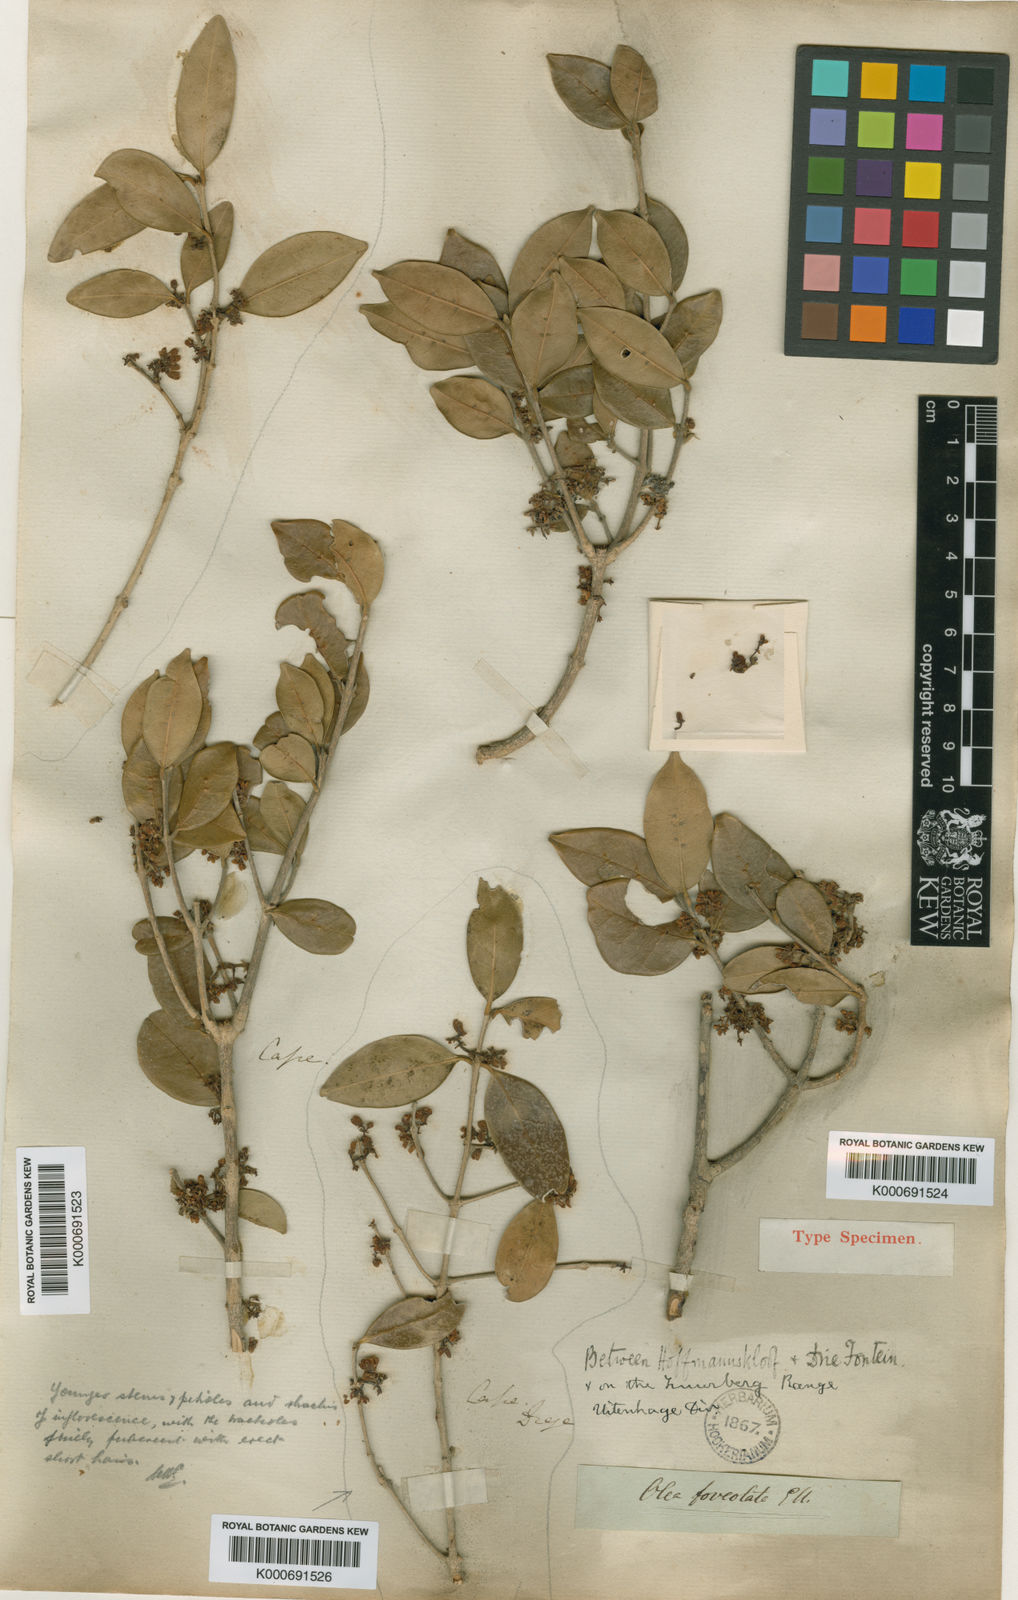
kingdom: Plantae
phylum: Tracheophyta
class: Magnoliopsida
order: Lamiales
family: Oleaceae
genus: Noronhia
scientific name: Noronhia foveolata
